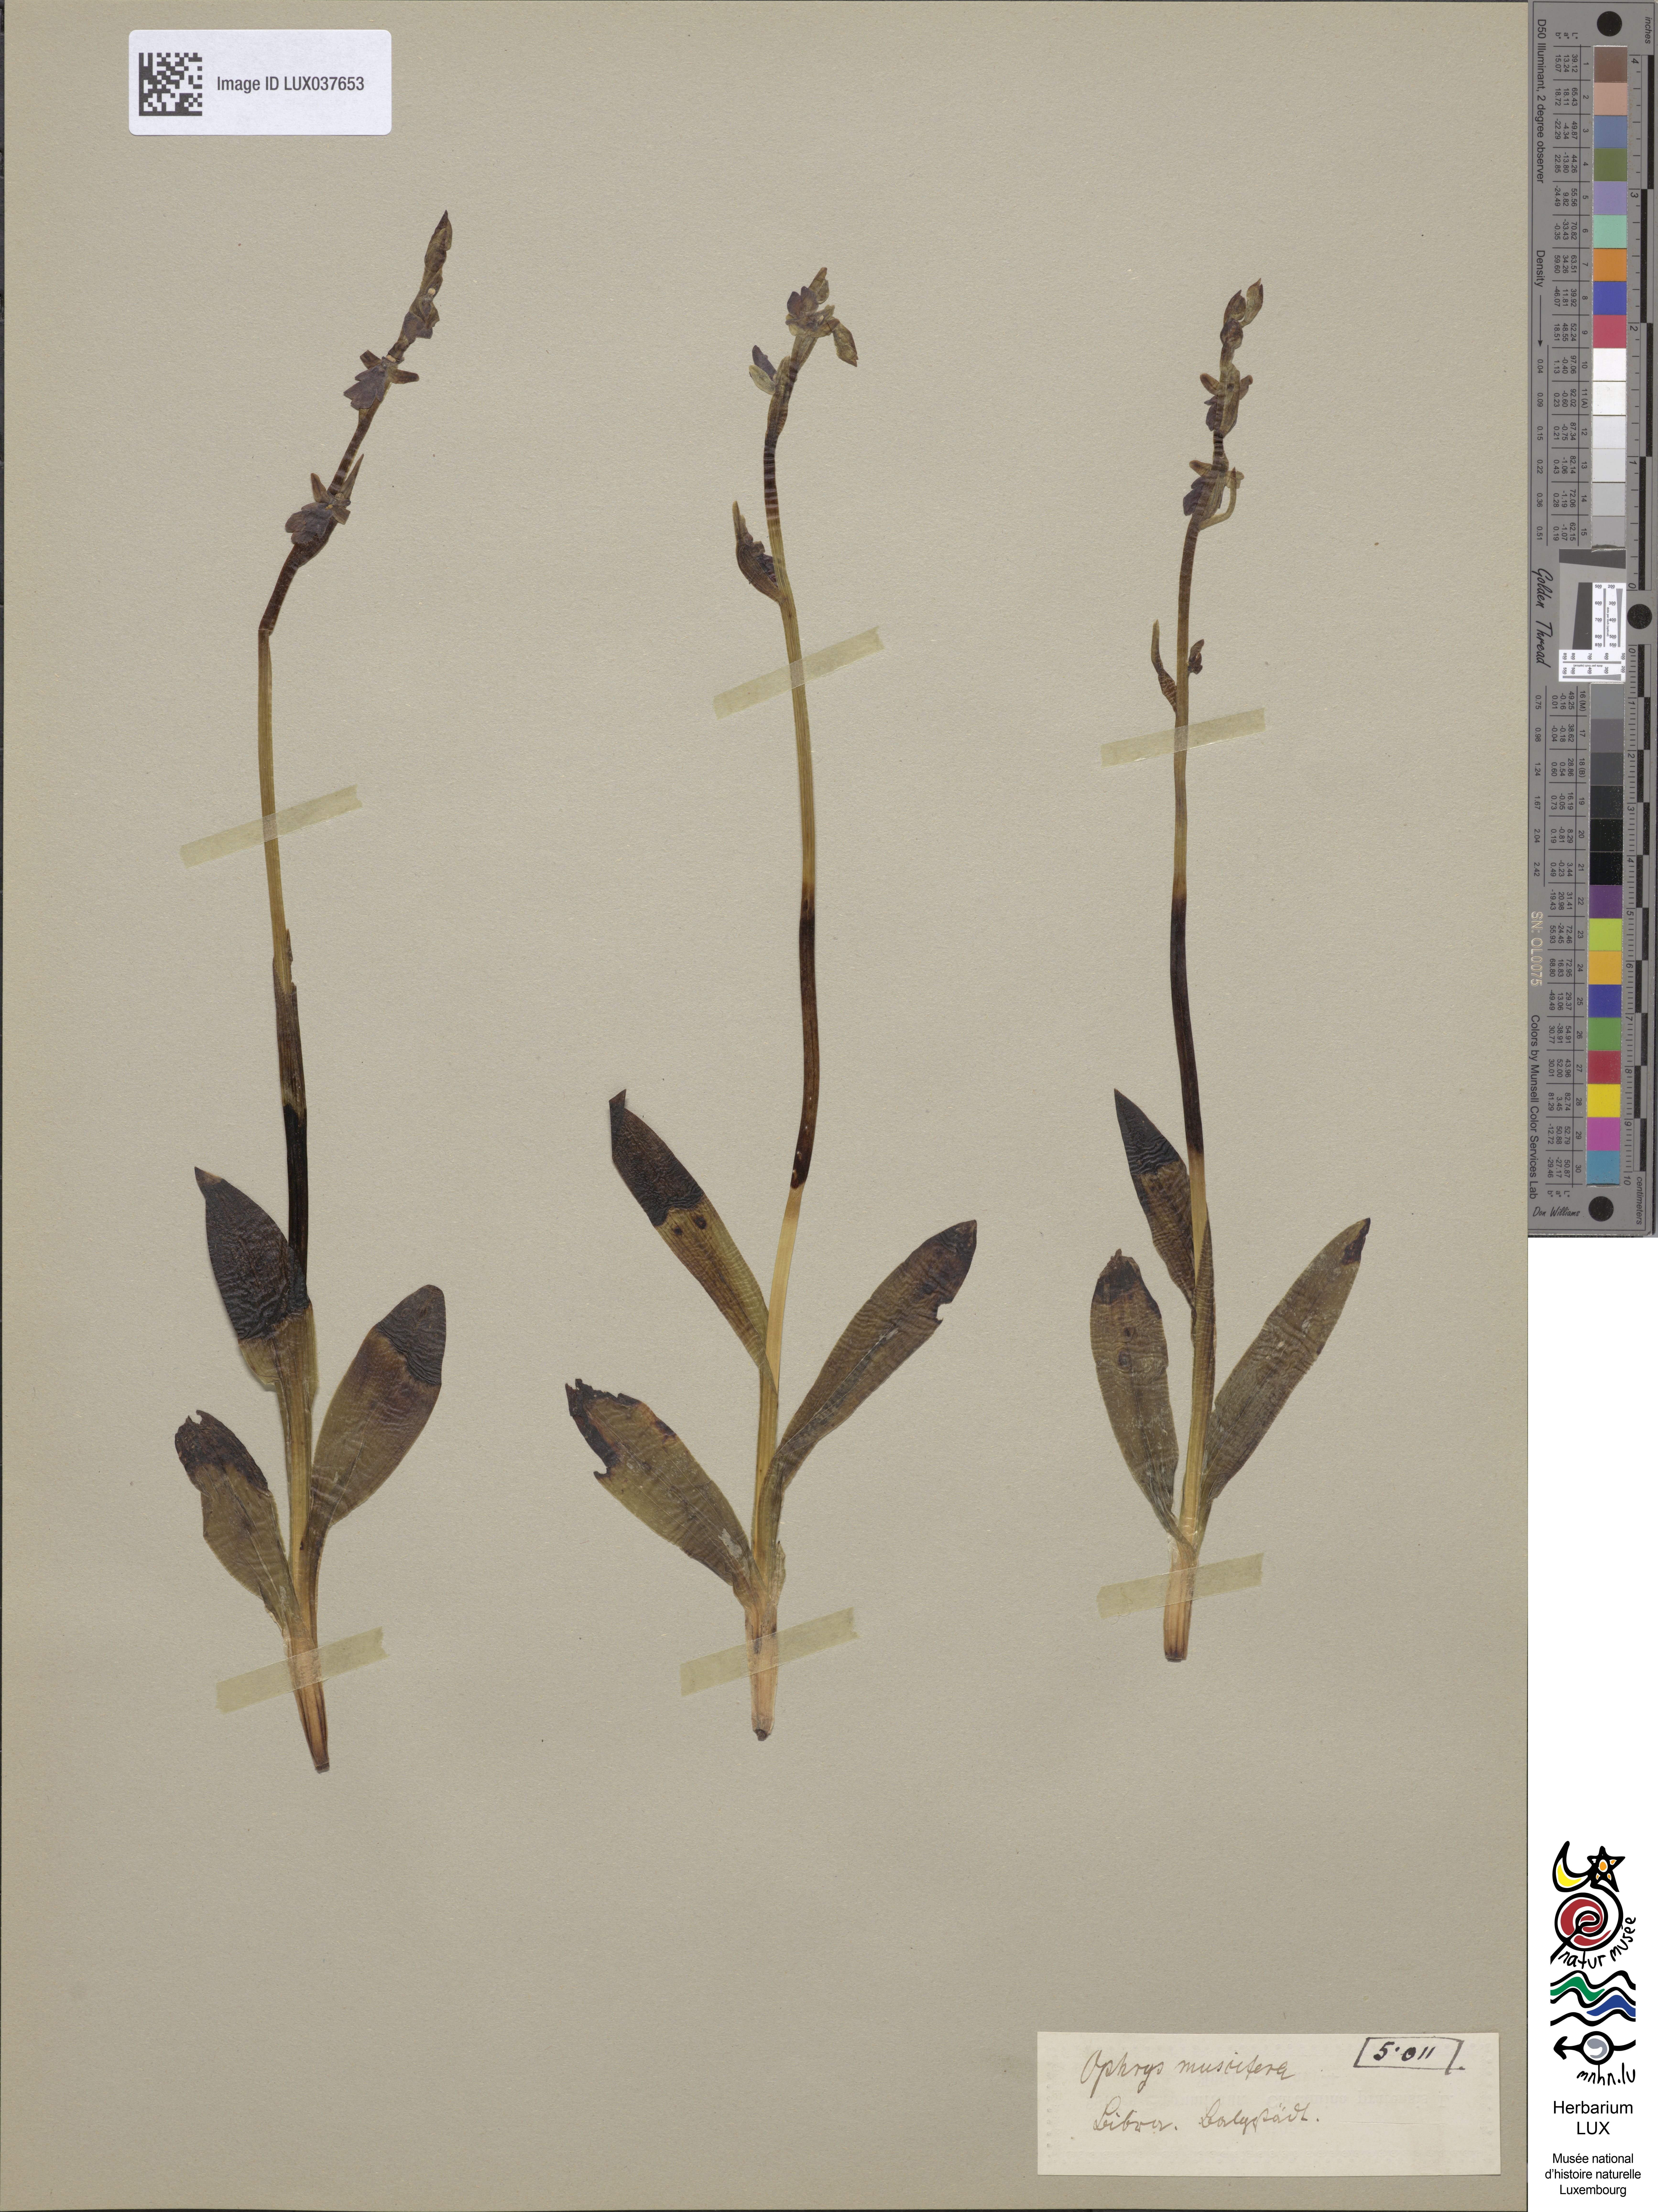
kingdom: Plantae
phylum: Tracheophyta
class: Liliopsida
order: Asparagales
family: Orchidaceae
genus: Ophrys
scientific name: Ophrys insectifera
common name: Fly orchid
